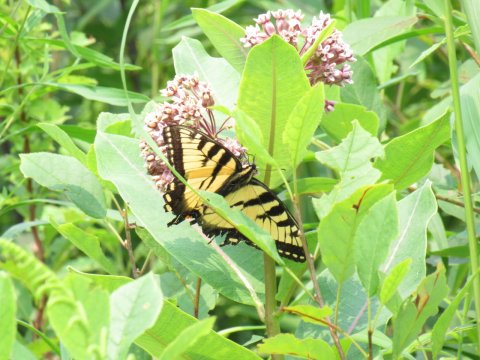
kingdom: Animalia
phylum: Arthropoda
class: Insecta
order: Lepidoptera
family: Papilionidae
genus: Pterourus
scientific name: Pterourus
